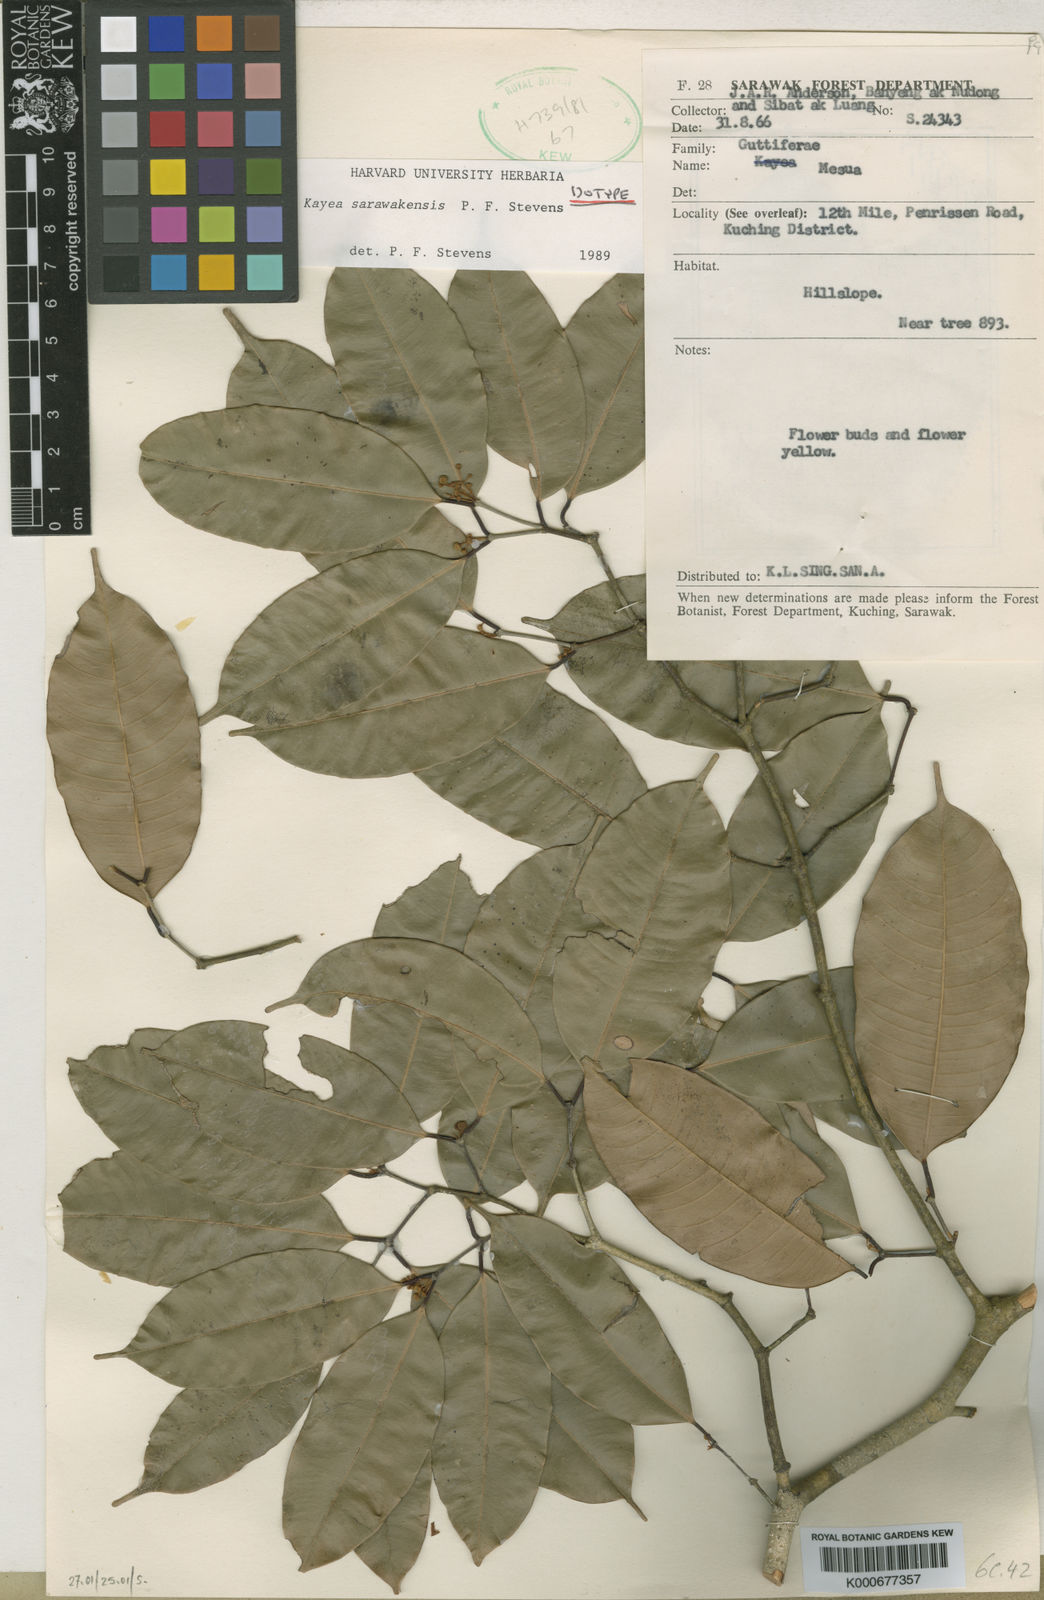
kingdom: Plantae
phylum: Tracheophyta
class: Magnoliopsida
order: Malpighiales
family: Calophyllaceae
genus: Kayea
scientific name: Kayea
